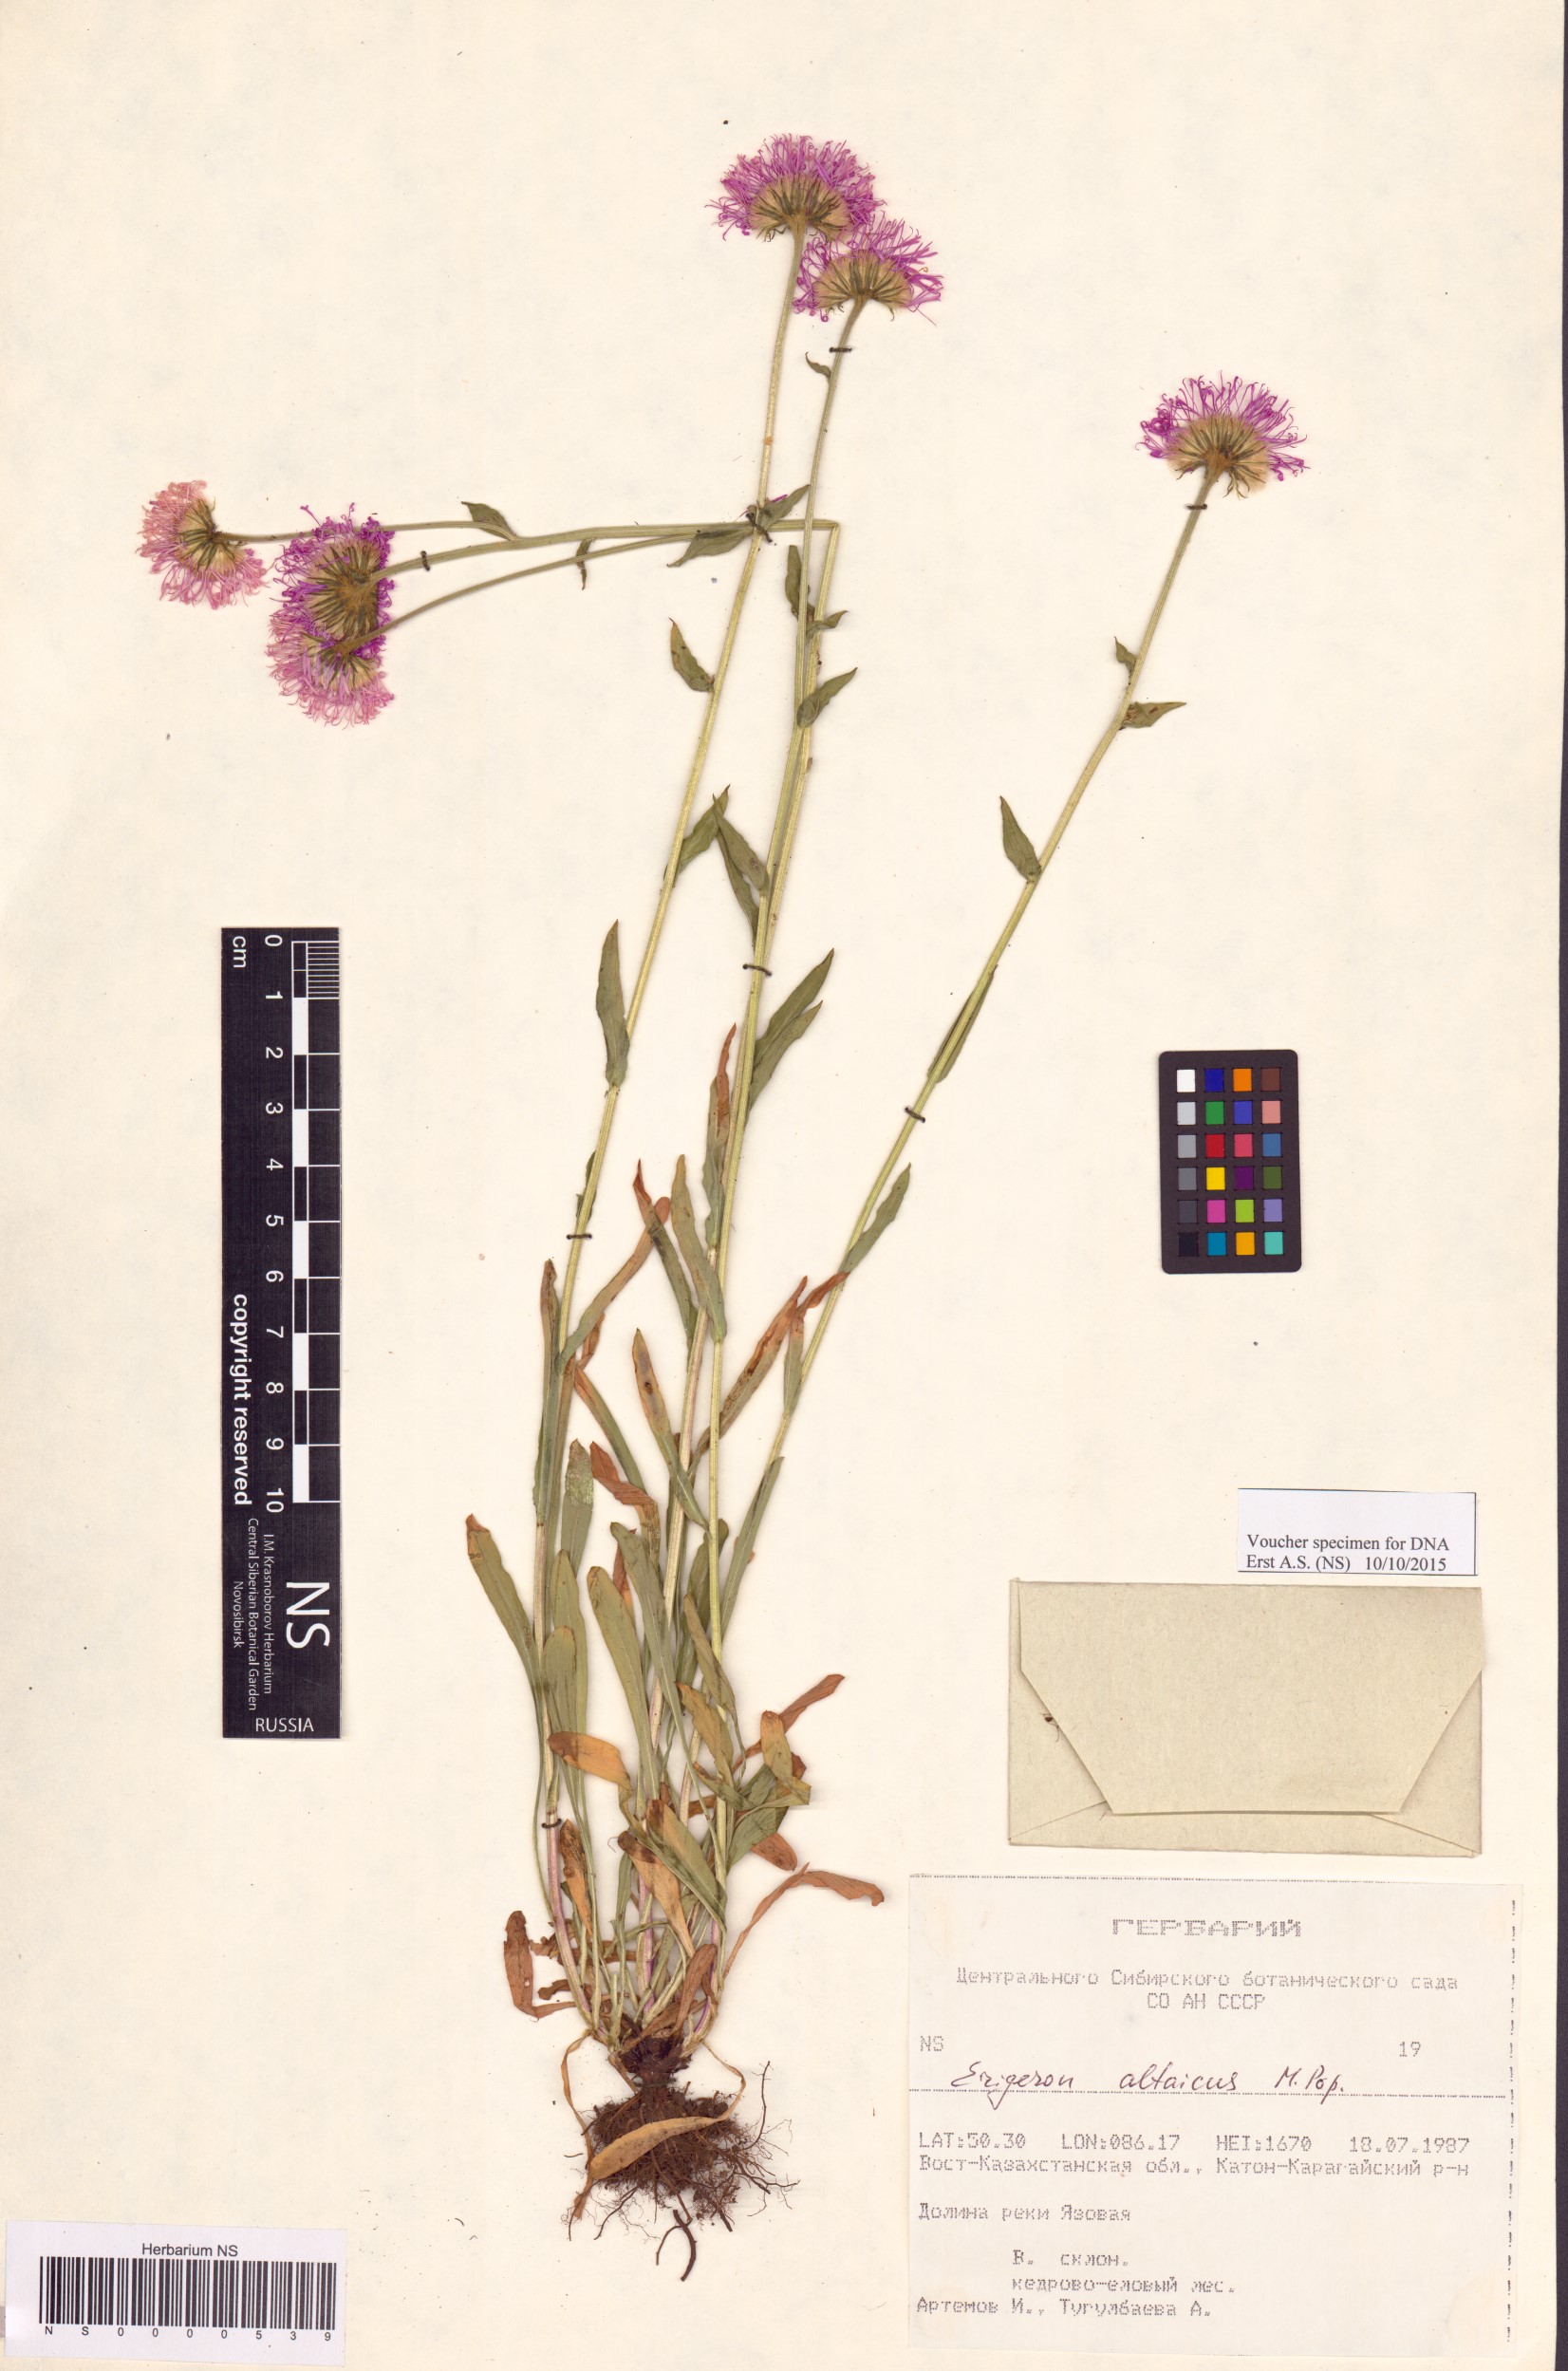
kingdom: Plantae
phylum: Tracheophyta
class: Magnoliopsida
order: Asterales
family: Asteraceae
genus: Erigeron
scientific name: Erigeron altaicus
